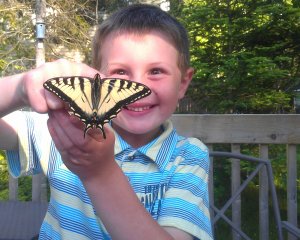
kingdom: Animalia
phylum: Arthropoda
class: Insecta
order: Lepidoptera
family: Papilionidae
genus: Pterourus
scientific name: Pterourus canadensis
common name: Canadian Tiger Swallowtail
